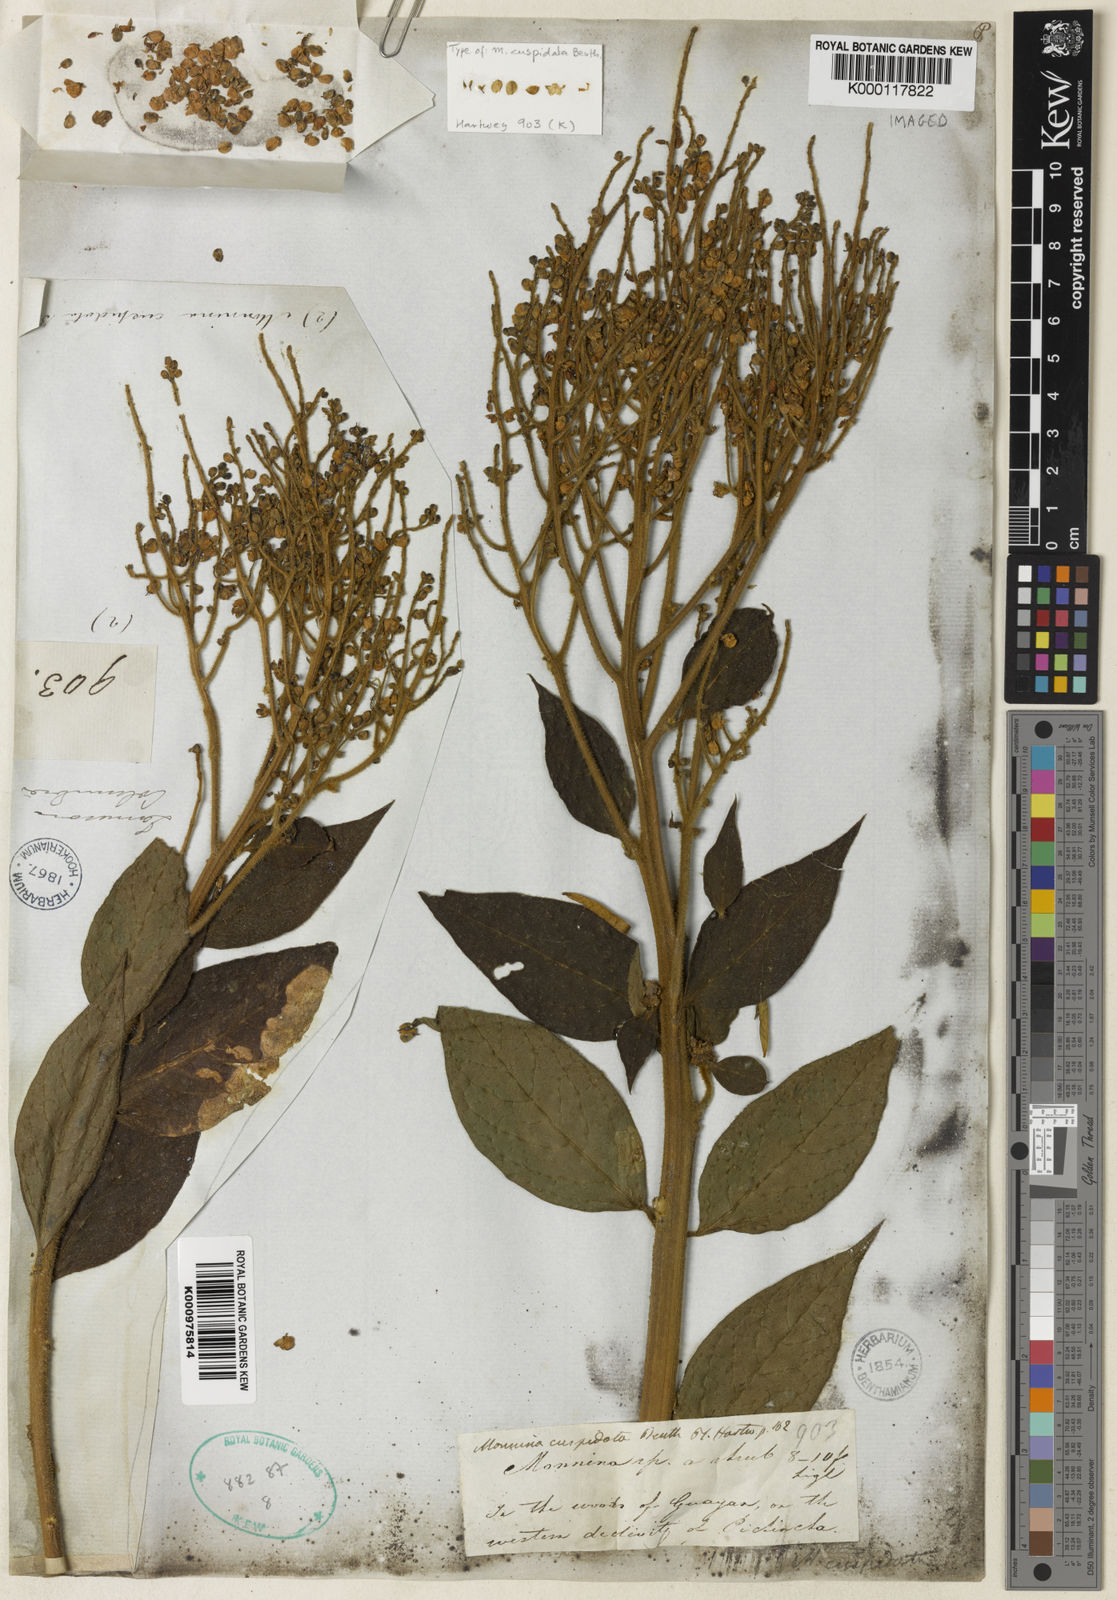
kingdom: Plantae
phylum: Tracheophyta
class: Magnoliopsida
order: Fabales
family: Polygalaceae
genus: Monnina
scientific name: Monnina polystachya
